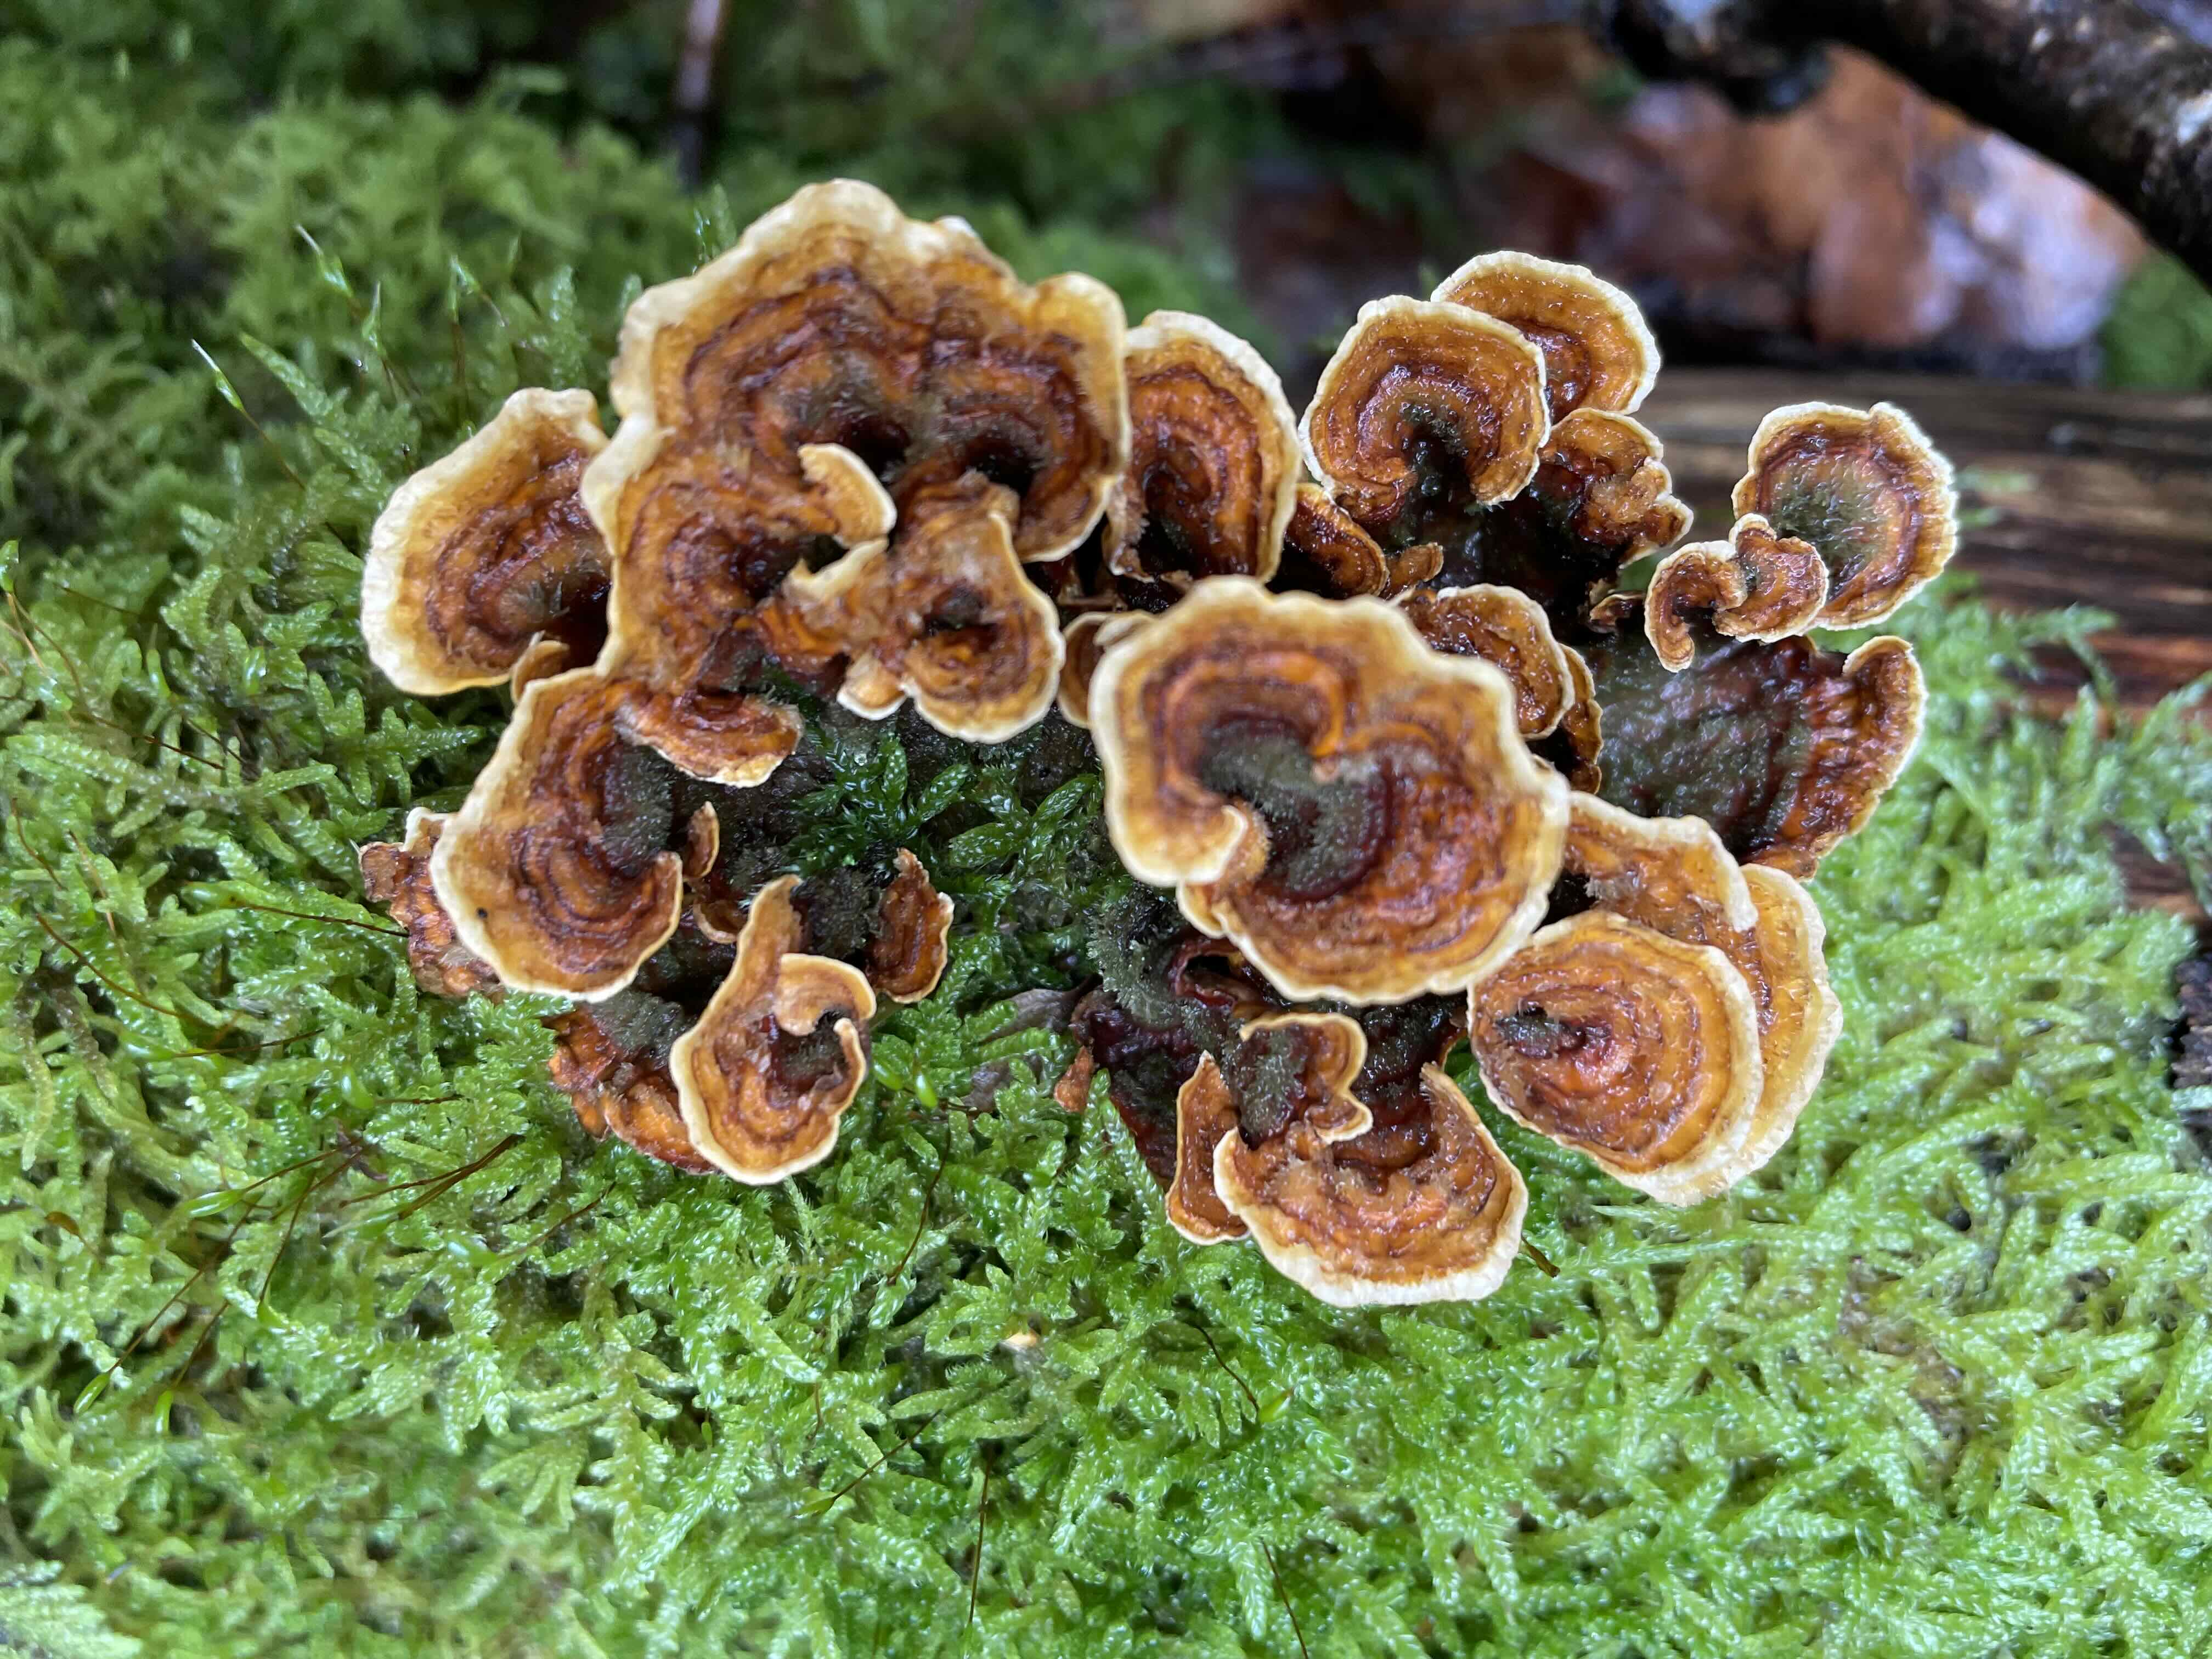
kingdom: Fungi
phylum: Basidiomycota
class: Agaricomycetes
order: Russulales
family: Stereaceae
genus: Stereum
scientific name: Stereum hirsutum
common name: håret lædersvamp
